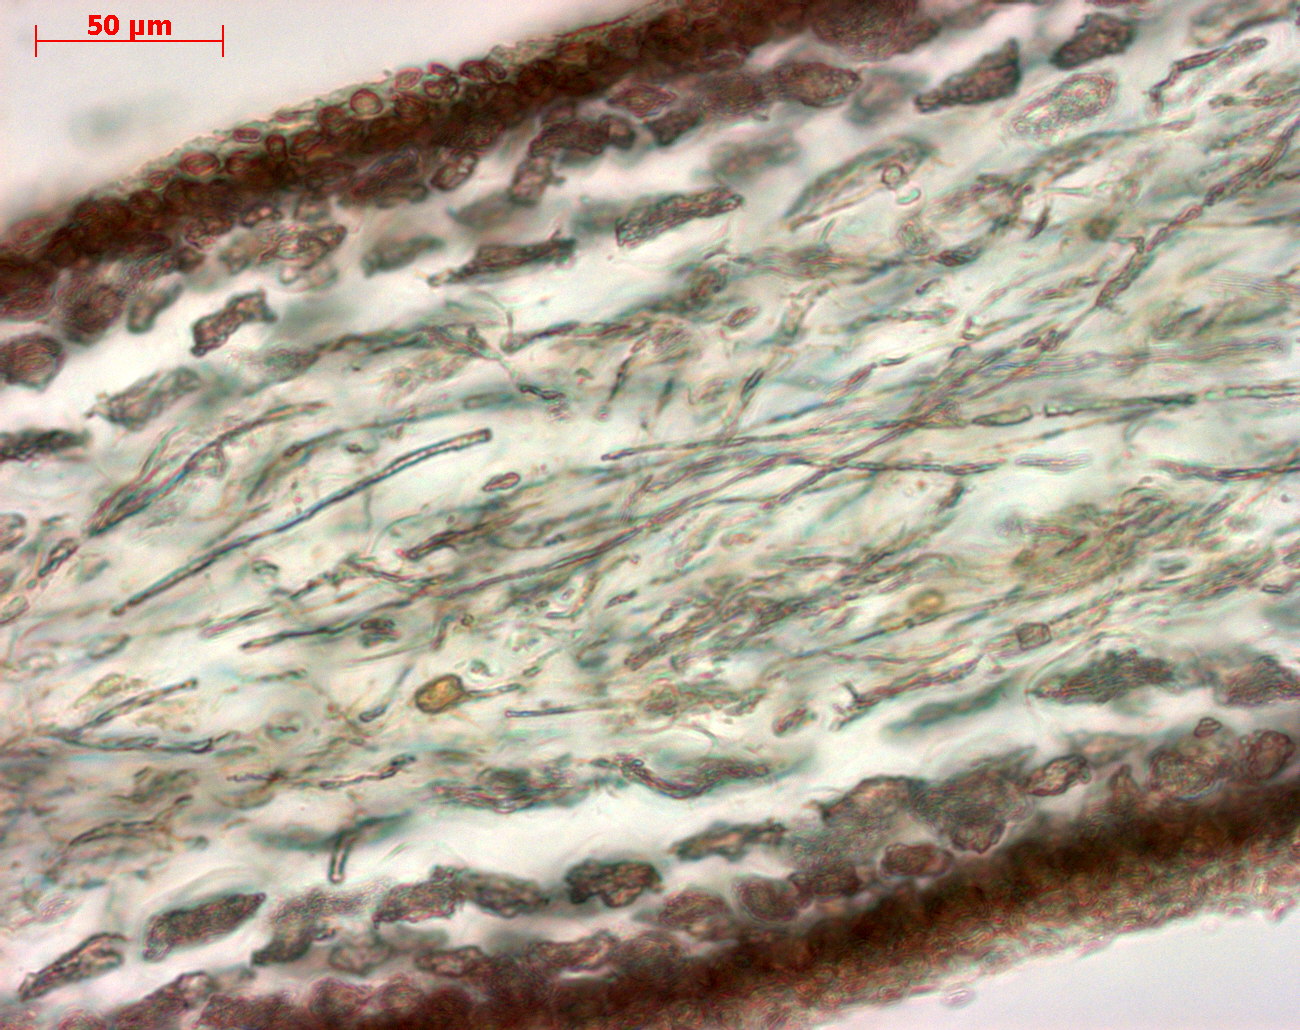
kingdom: Plantae
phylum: Rhodophyta
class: Florideophyceae
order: Gigartinales
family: Kallymeniaceae
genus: Psaromenia
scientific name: Psaromenia berggrenii
